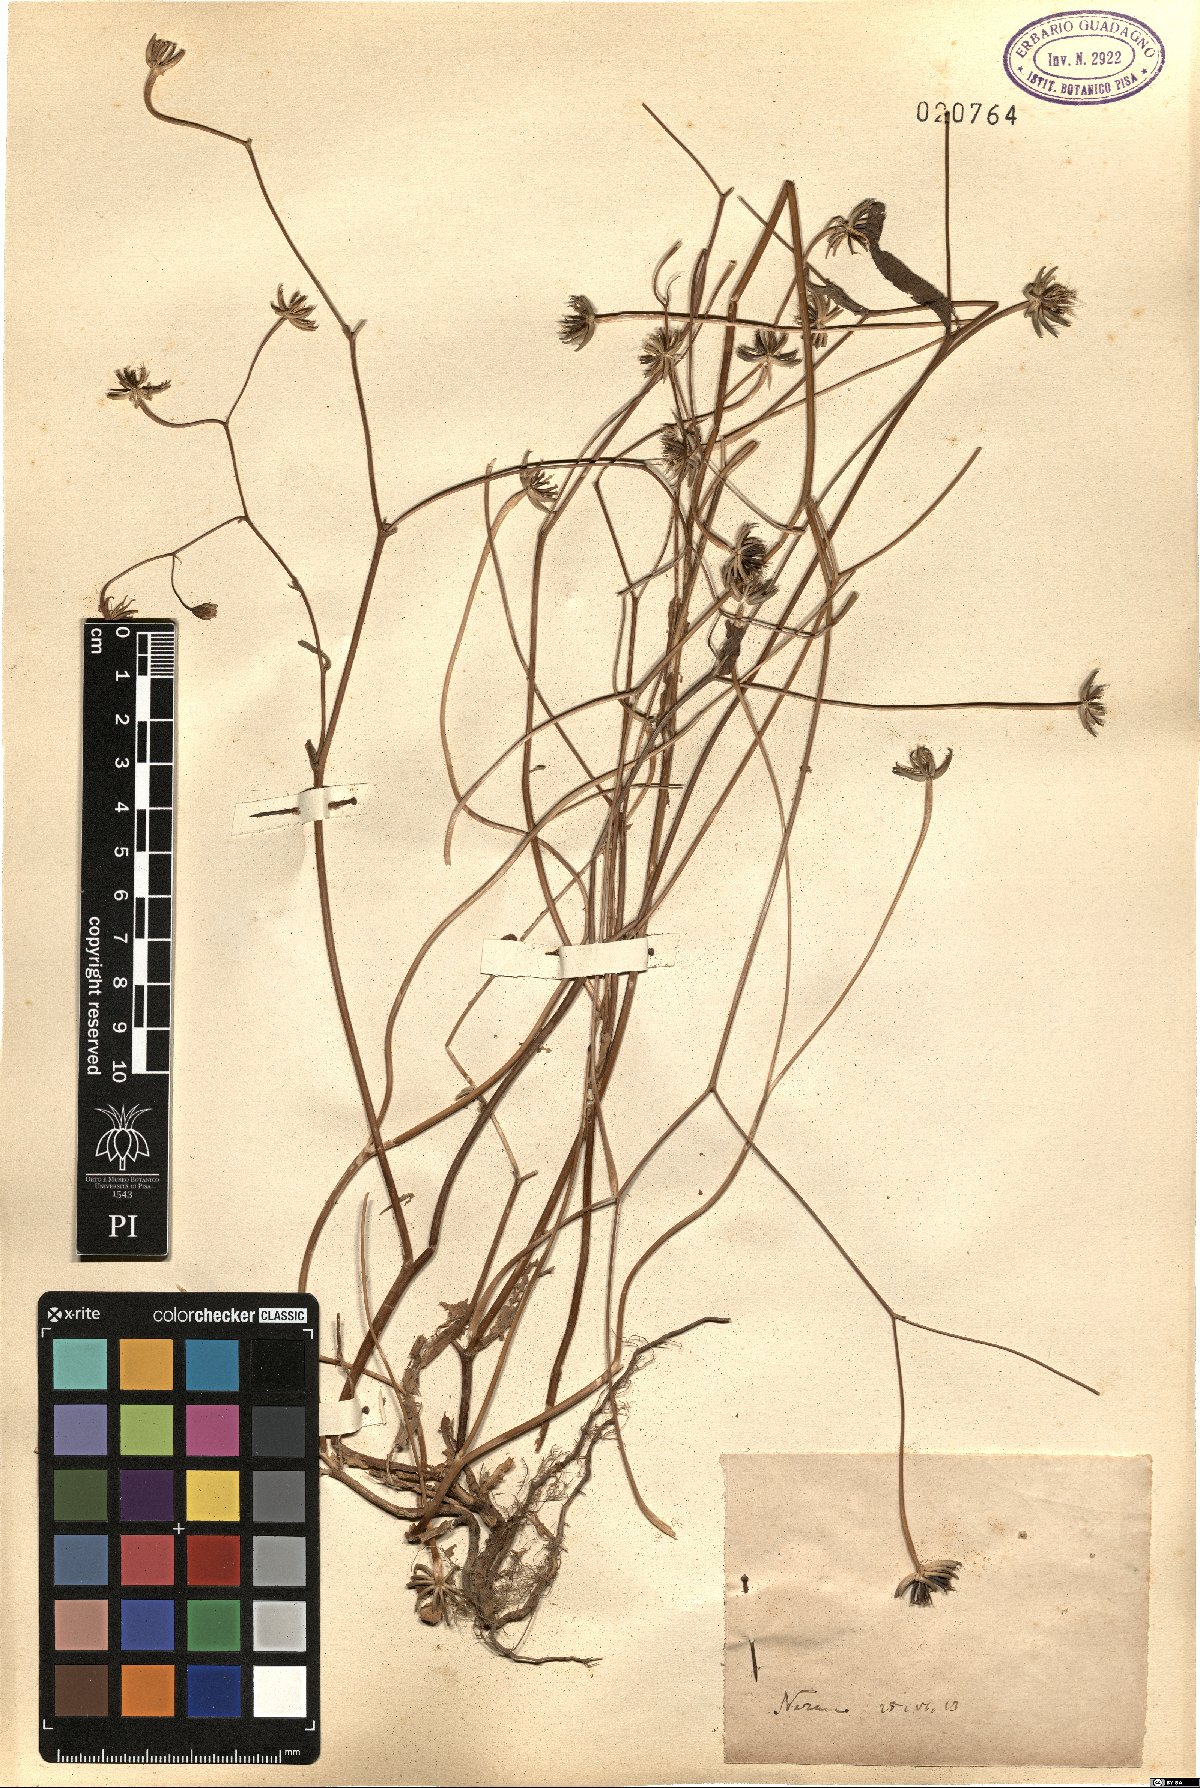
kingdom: Plantae
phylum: Tracheophyta
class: Magnoliopsida
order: Asterales
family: Asteraceae
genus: Rhagadiolus
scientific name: Rhagadiolus
